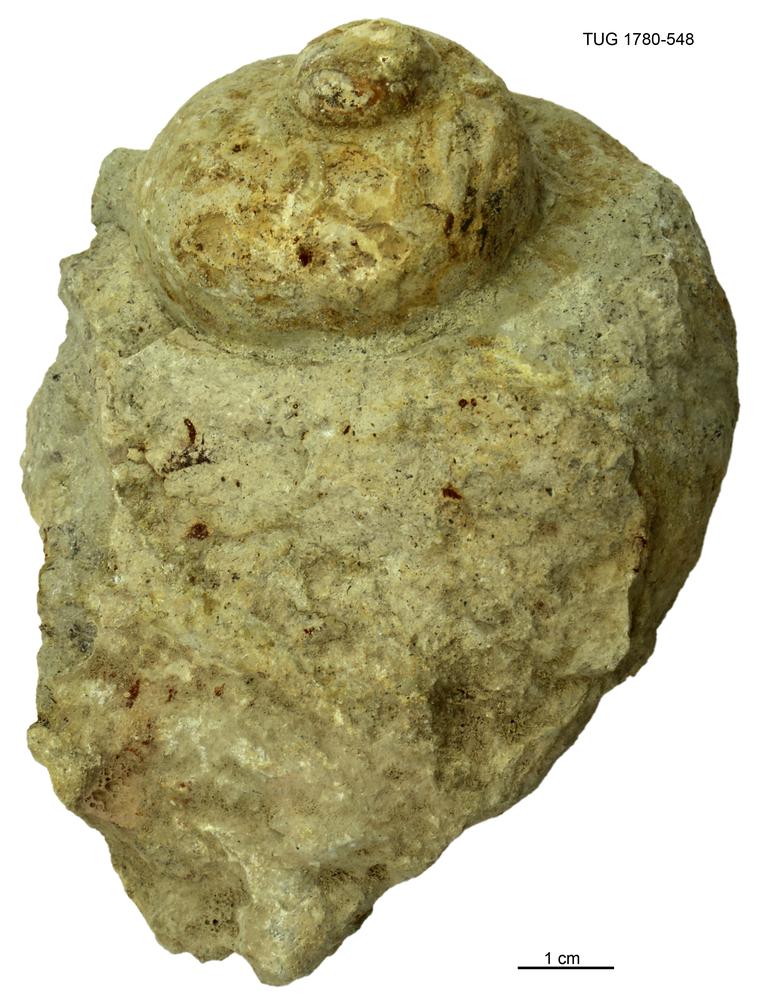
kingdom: Animalia
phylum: Mollusca
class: Gastropoda
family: Holopeidae
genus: Holopea
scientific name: Holopea ampullacea
